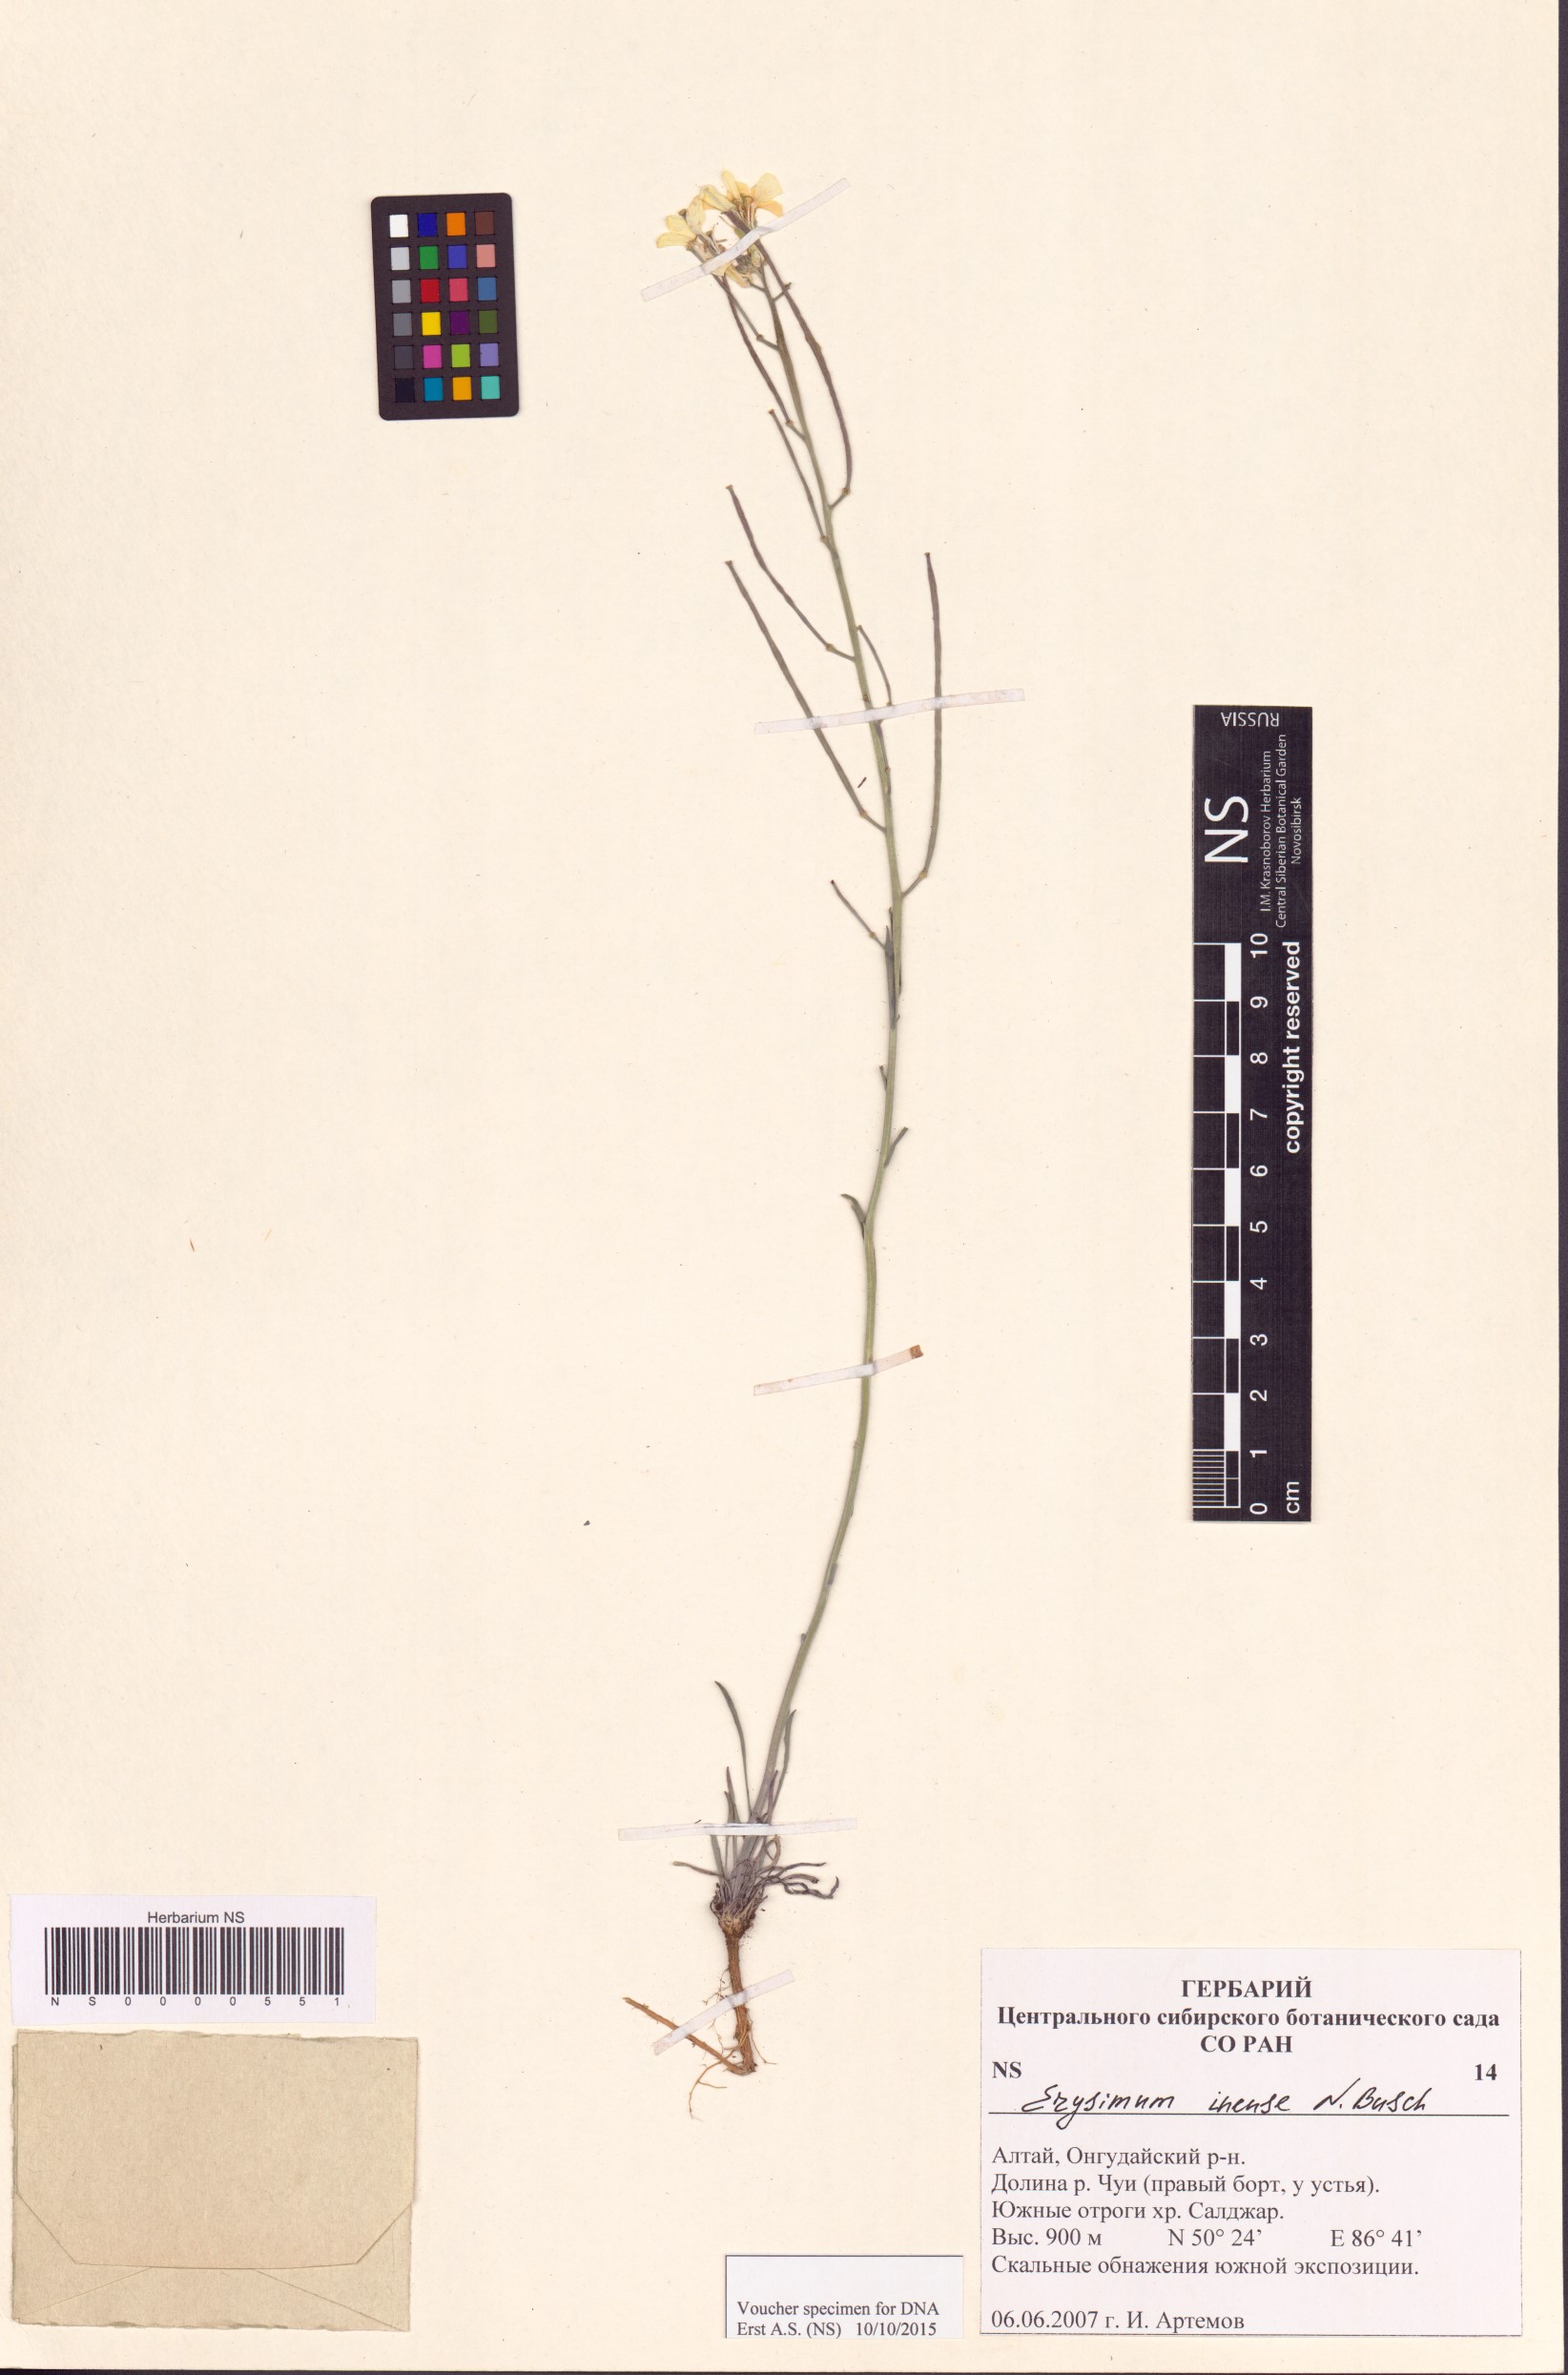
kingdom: Plantae
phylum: Tracheophyta
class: Magnoliopsida
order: Brassicales
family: Brassicaceae
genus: Erysimum
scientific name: Erysimum inense
